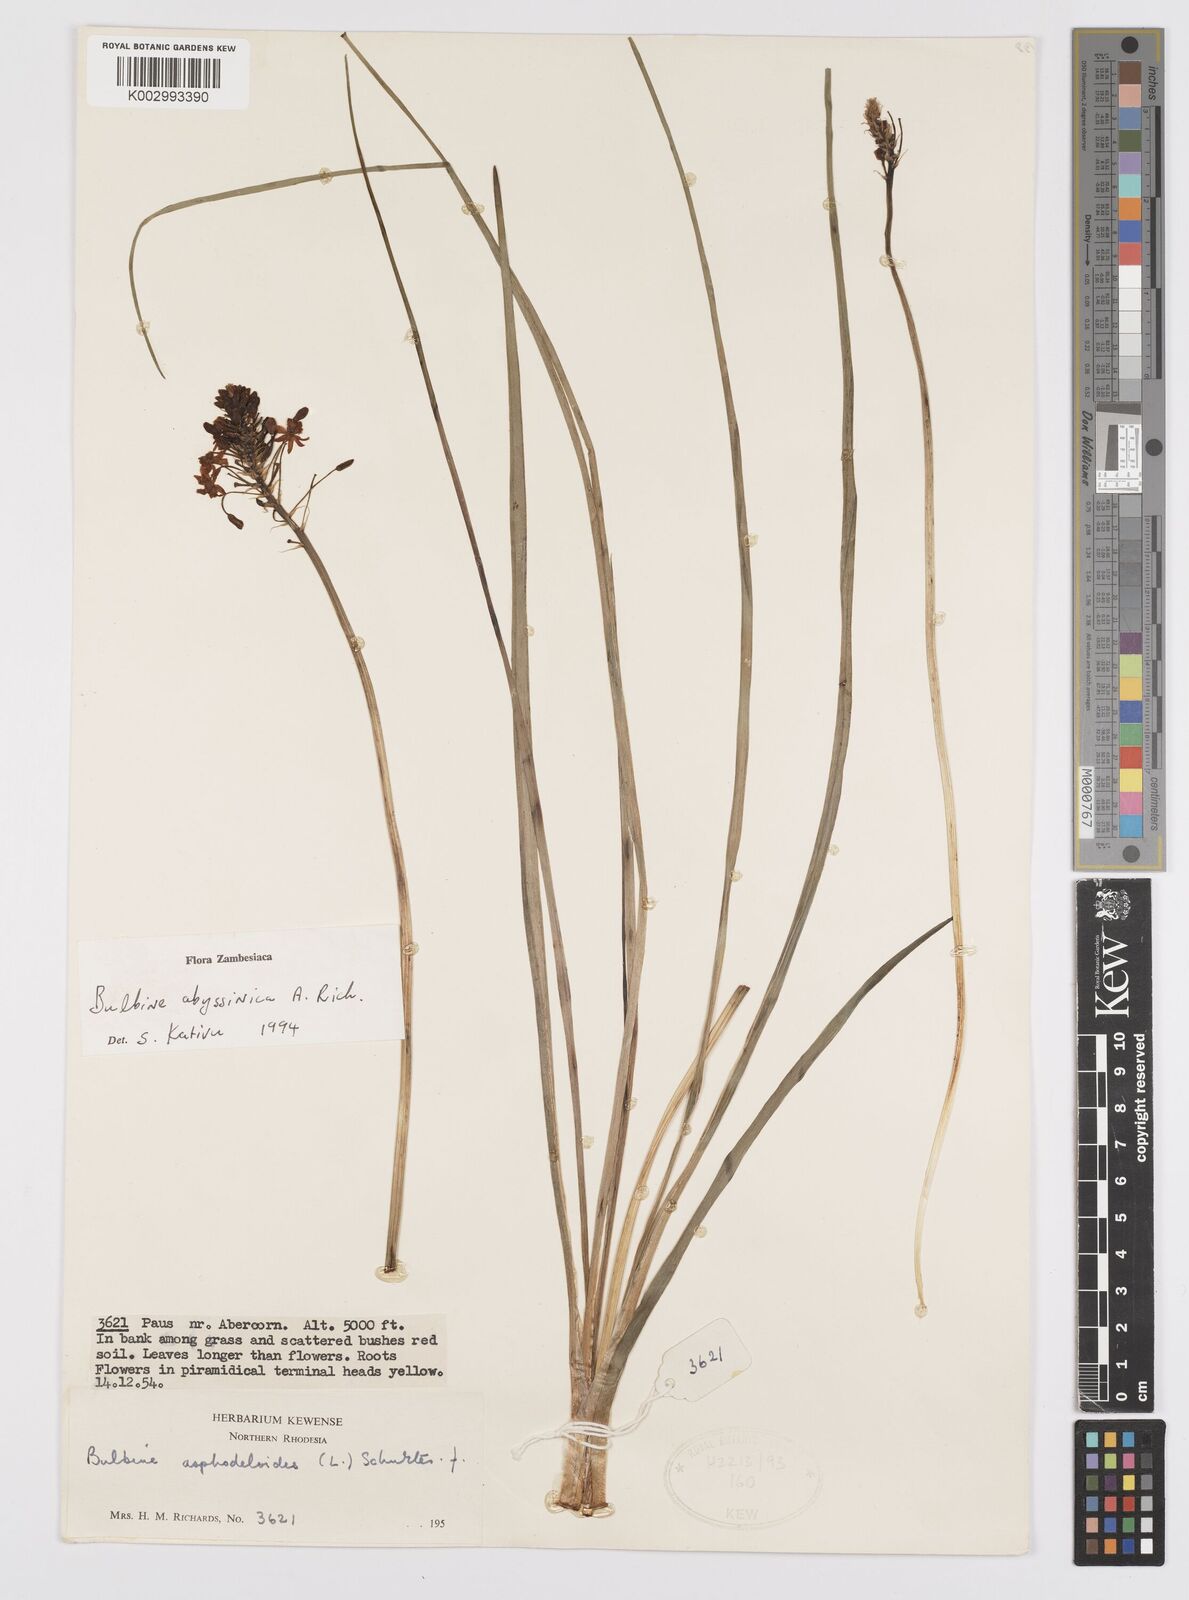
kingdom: Plantae
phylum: Tracheophyta
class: Liliopsida
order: Asparagales
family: Asphodelaceae
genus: Bulbine
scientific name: Bulbine abyssinica
